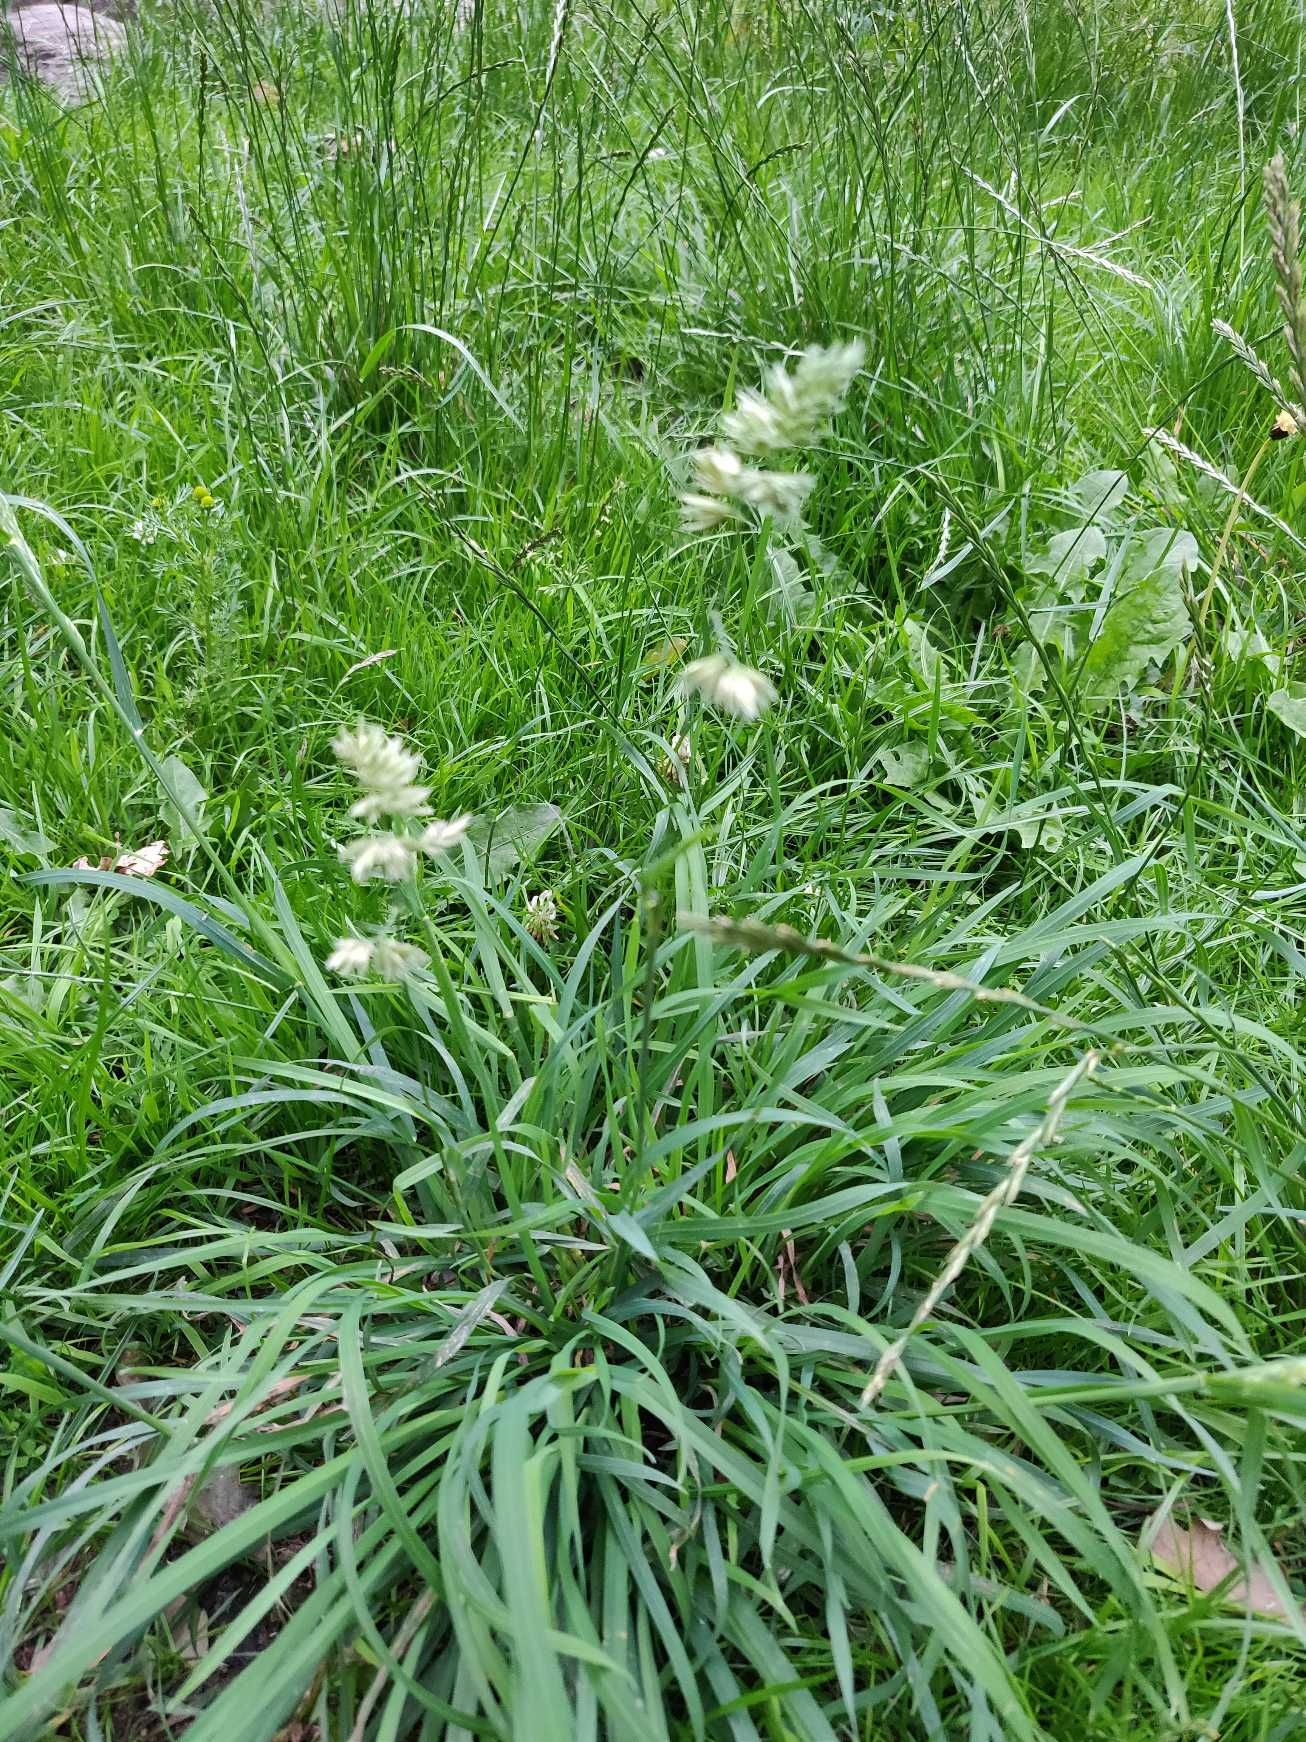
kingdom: Plantae
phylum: Tracheophyta
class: Liliopsida
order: Poales
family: Poaceae
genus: Dactylis
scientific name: Dactylis glomerata
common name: Almindelig hundegræs
